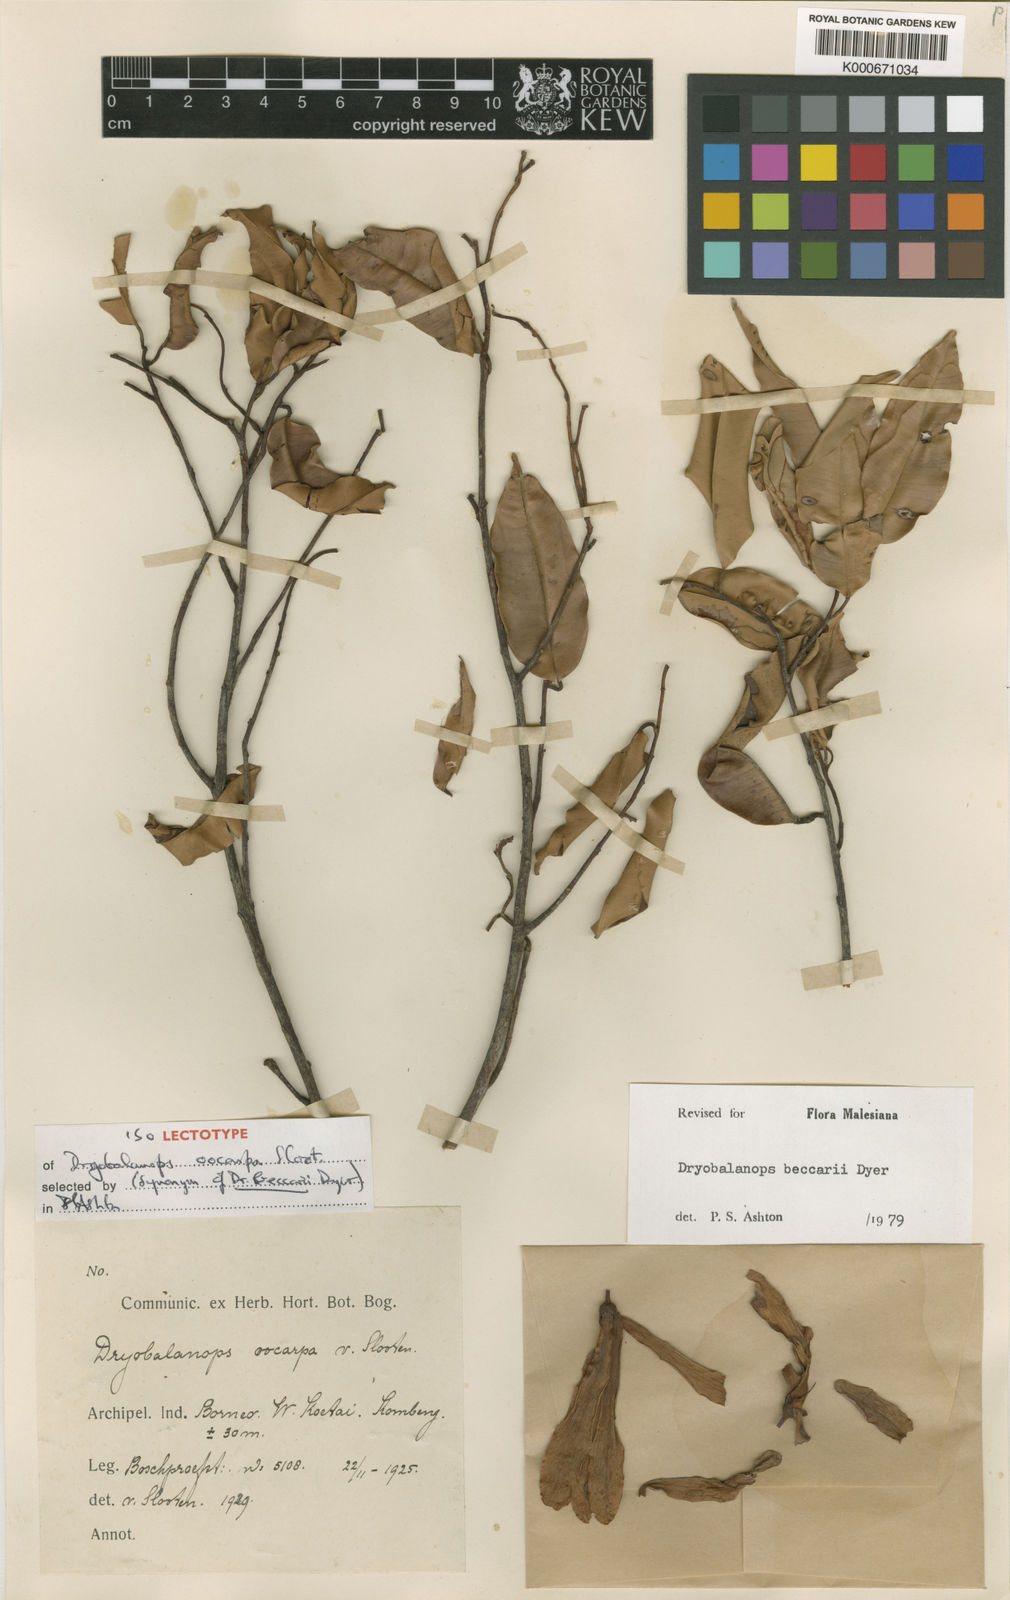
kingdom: Plantae
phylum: Tracheophyta
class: Magnoliopsida
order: Malvales
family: Dipterocarpaceae
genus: Dryobalanops
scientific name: Dryobalanops beccarii
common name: Sabah kapur
